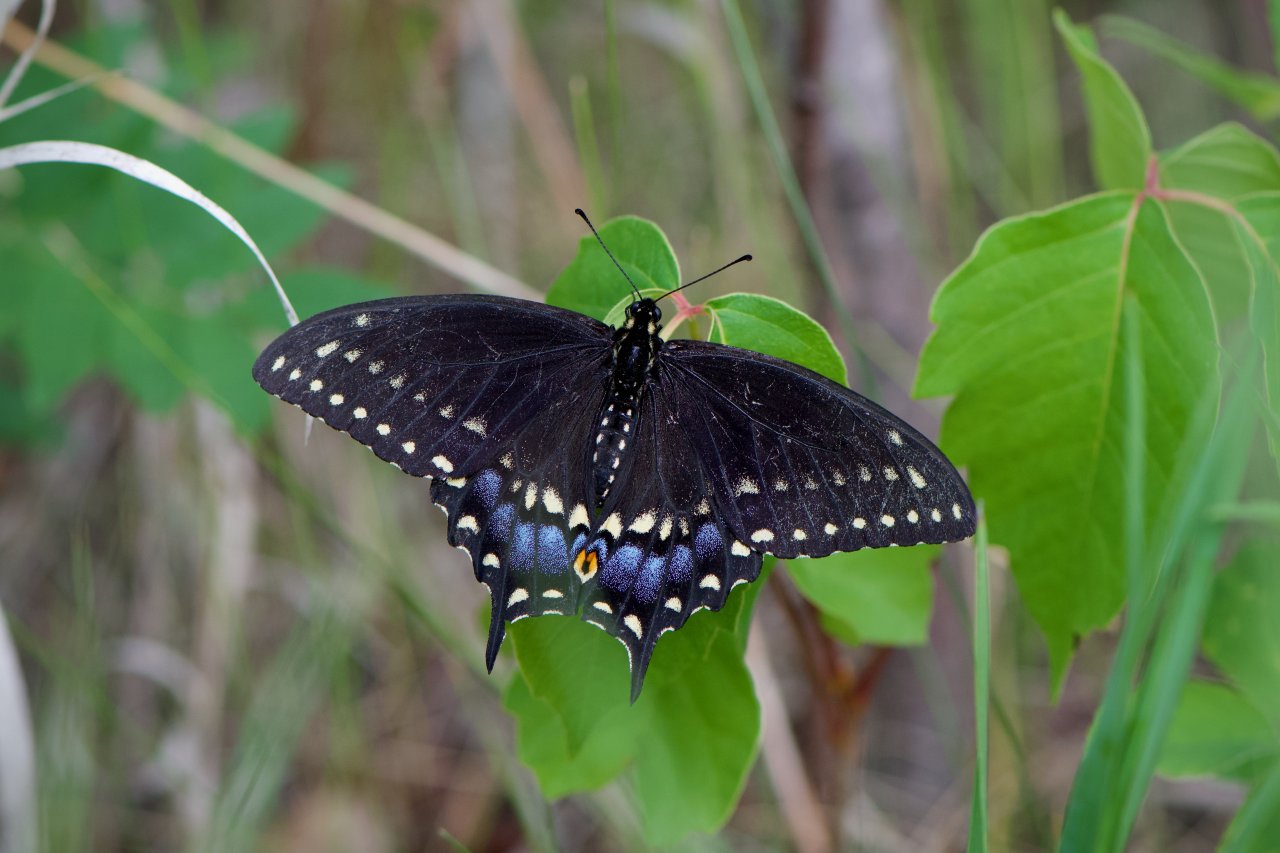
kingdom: Animalia
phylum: Arthropoda
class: Insecta
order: Lepidoptera
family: Papilionidae
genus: Papilio
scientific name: Papilio polyxenes
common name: Black Swallowtail
